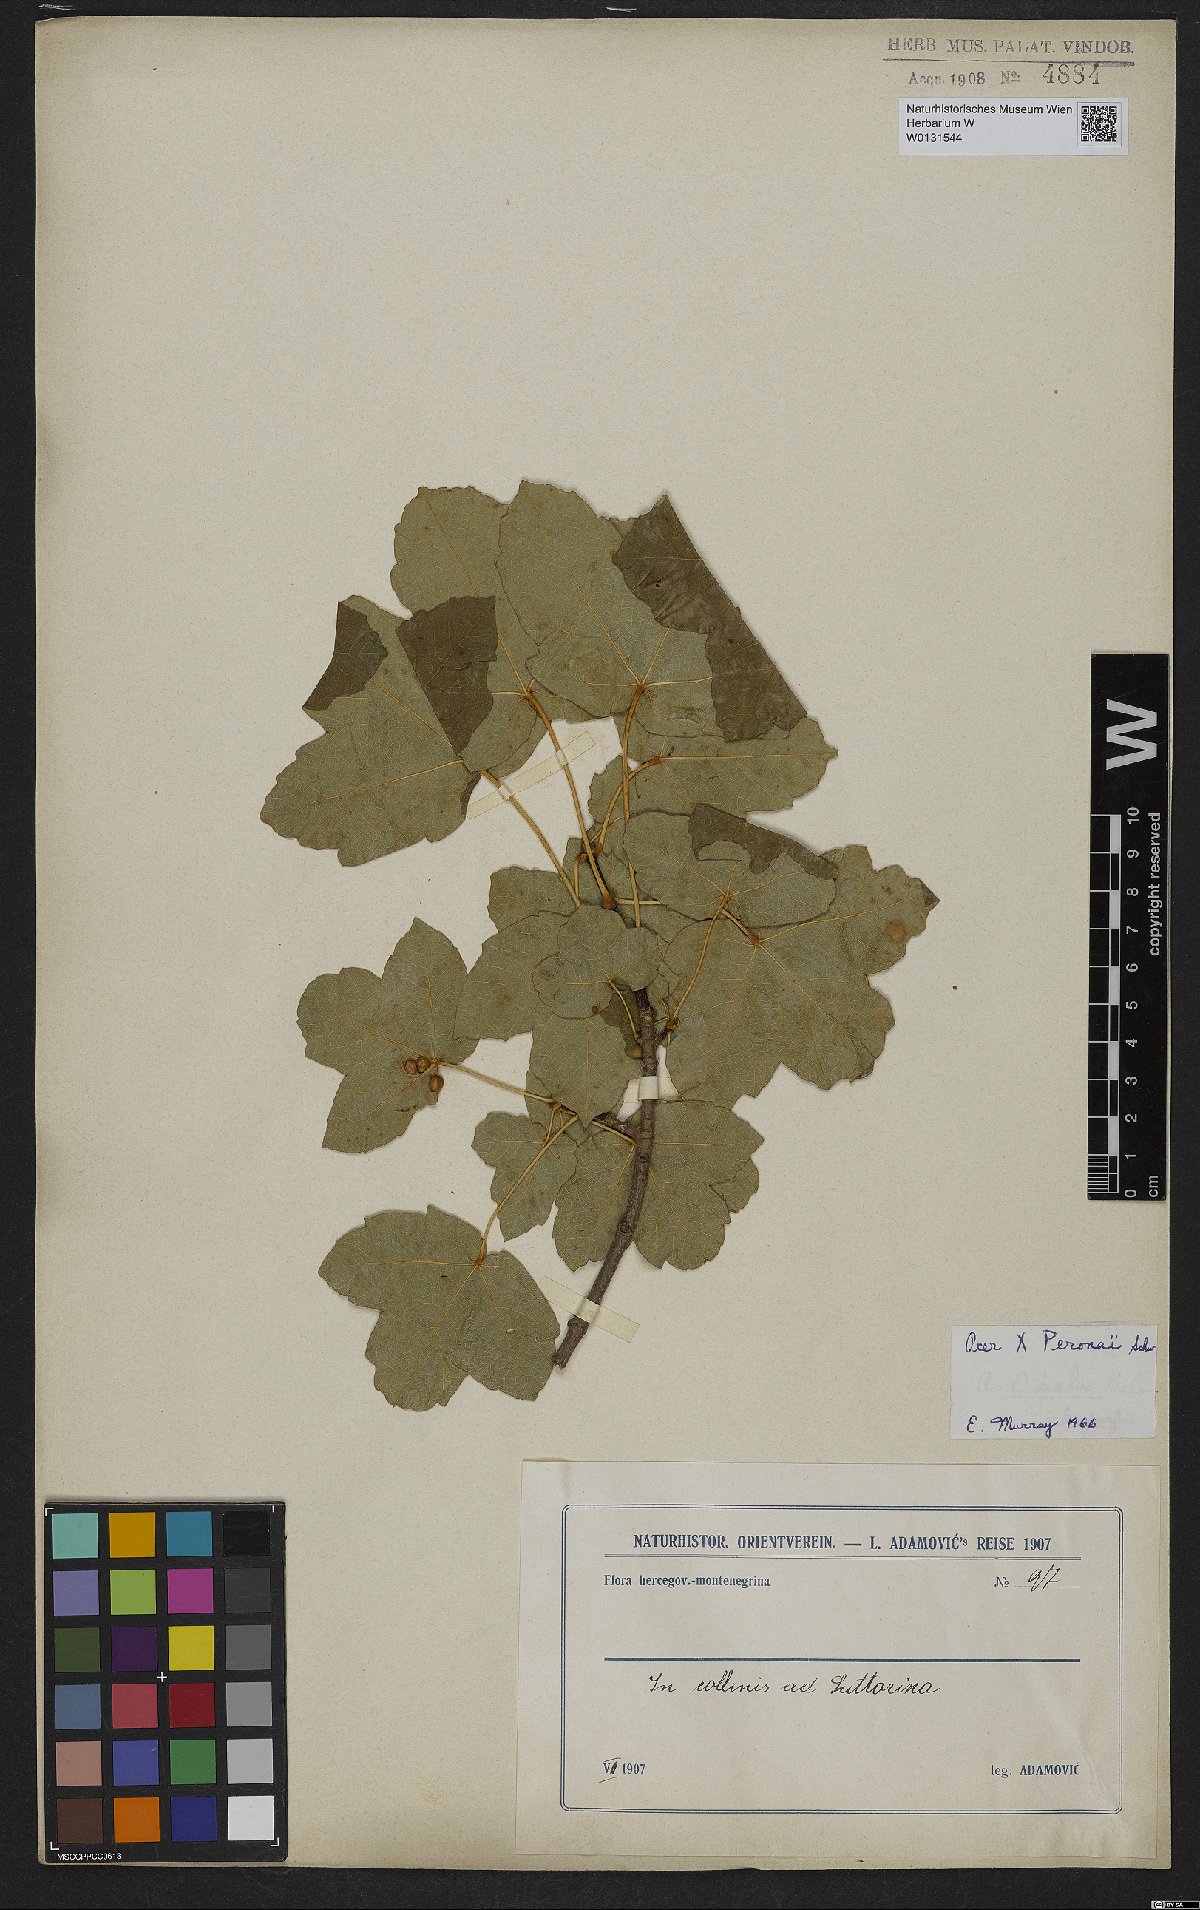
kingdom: Plantae
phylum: Tracheophyta
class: Magnoliopsida
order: Sapindales
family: Aceraceae
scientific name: Aceraceae
